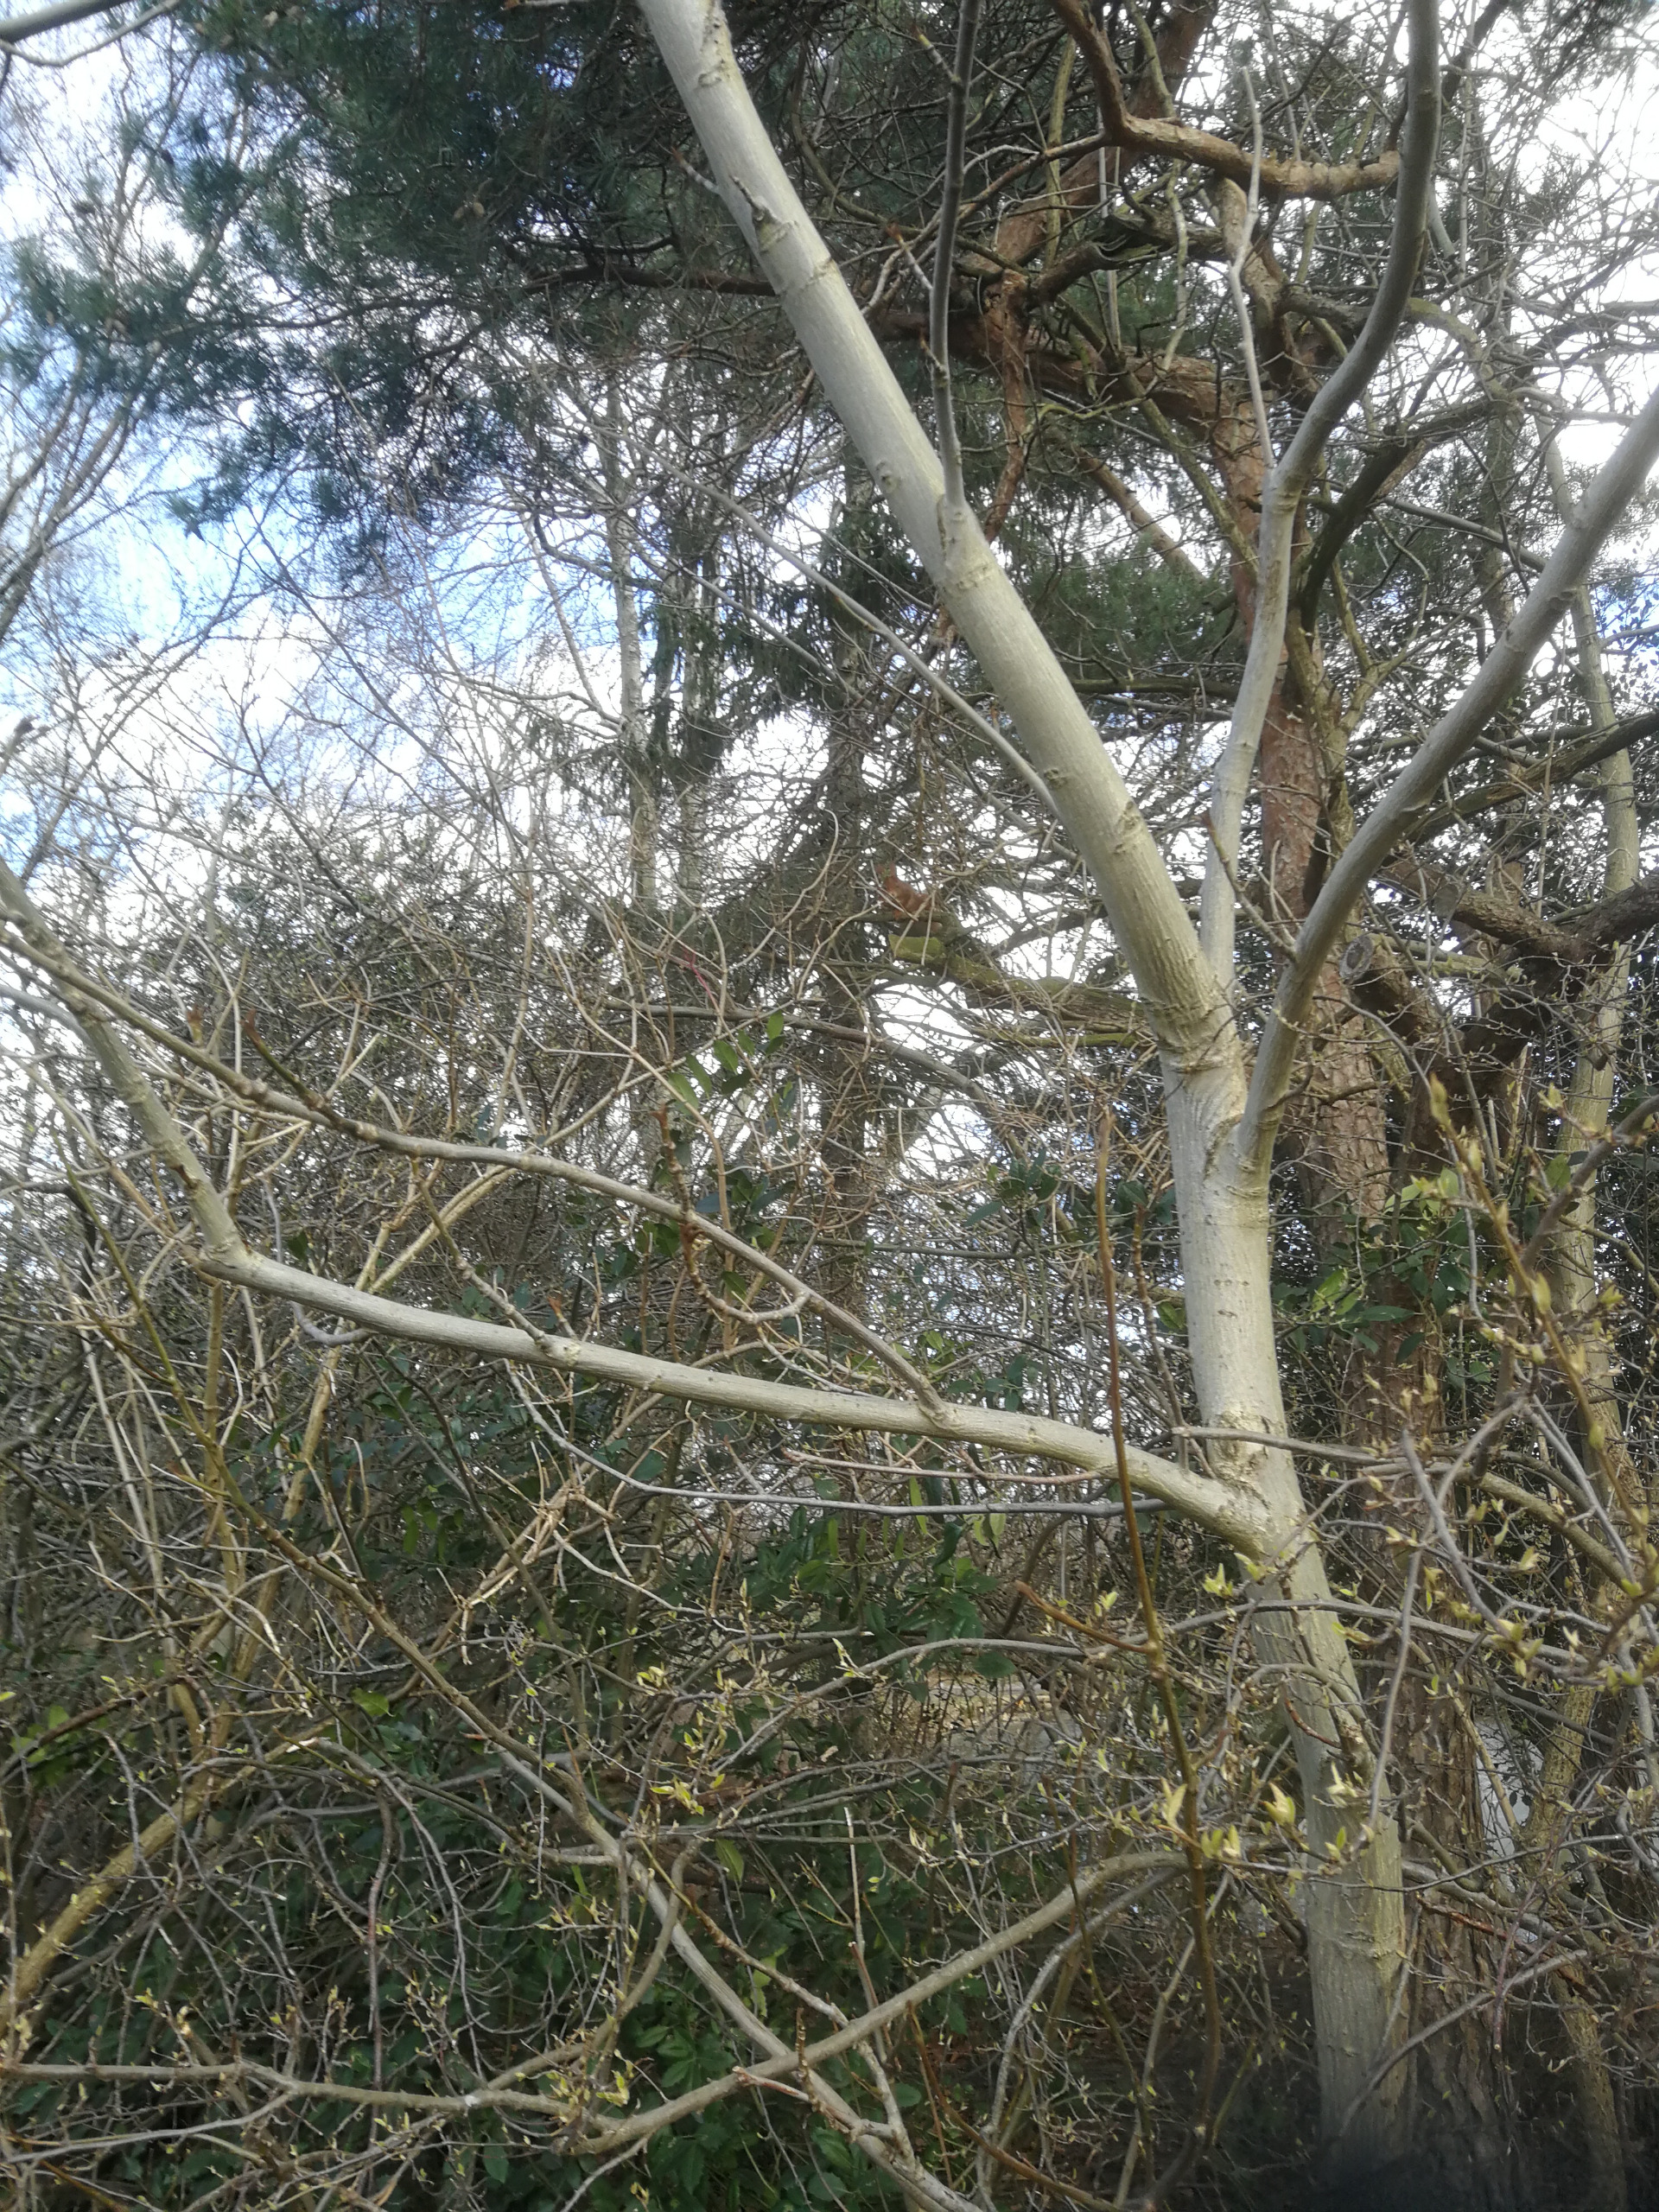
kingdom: Animalia
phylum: Chordata
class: Mammalia
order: Rodentia
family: Sciuridae
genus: Sciurus
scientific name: Sciurus vulgaris
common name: Egern
